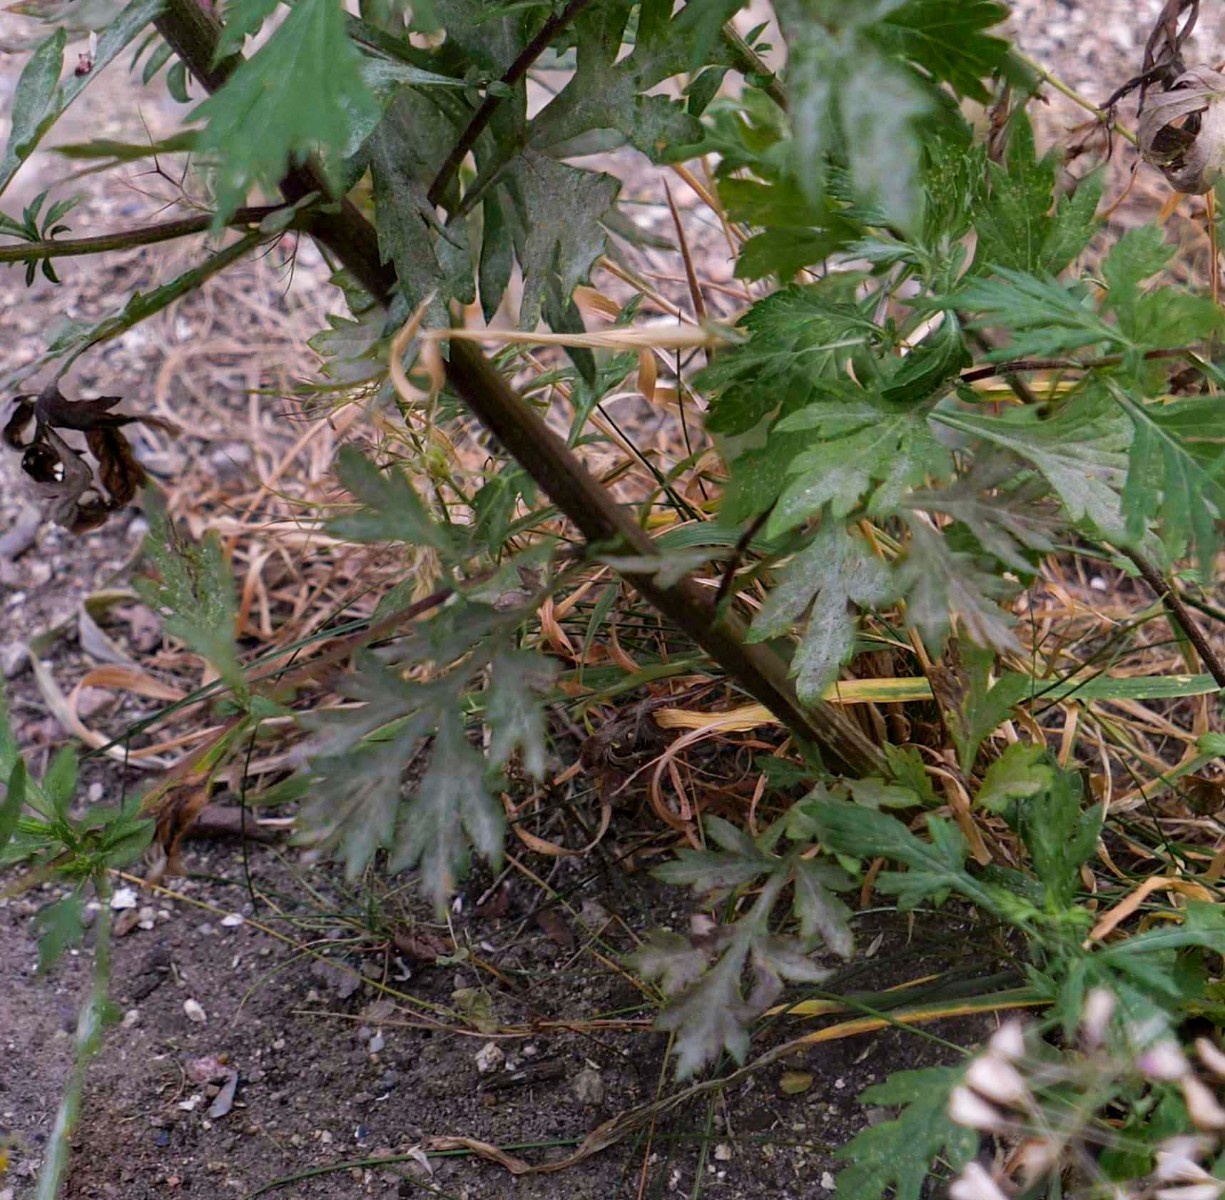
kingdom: Fungi
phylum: Ascomycota
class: Leotiomycetes
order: Helotiales
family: Erysiphaceae
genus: Golovinomyces
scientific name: Golovinomyces artemisiae
